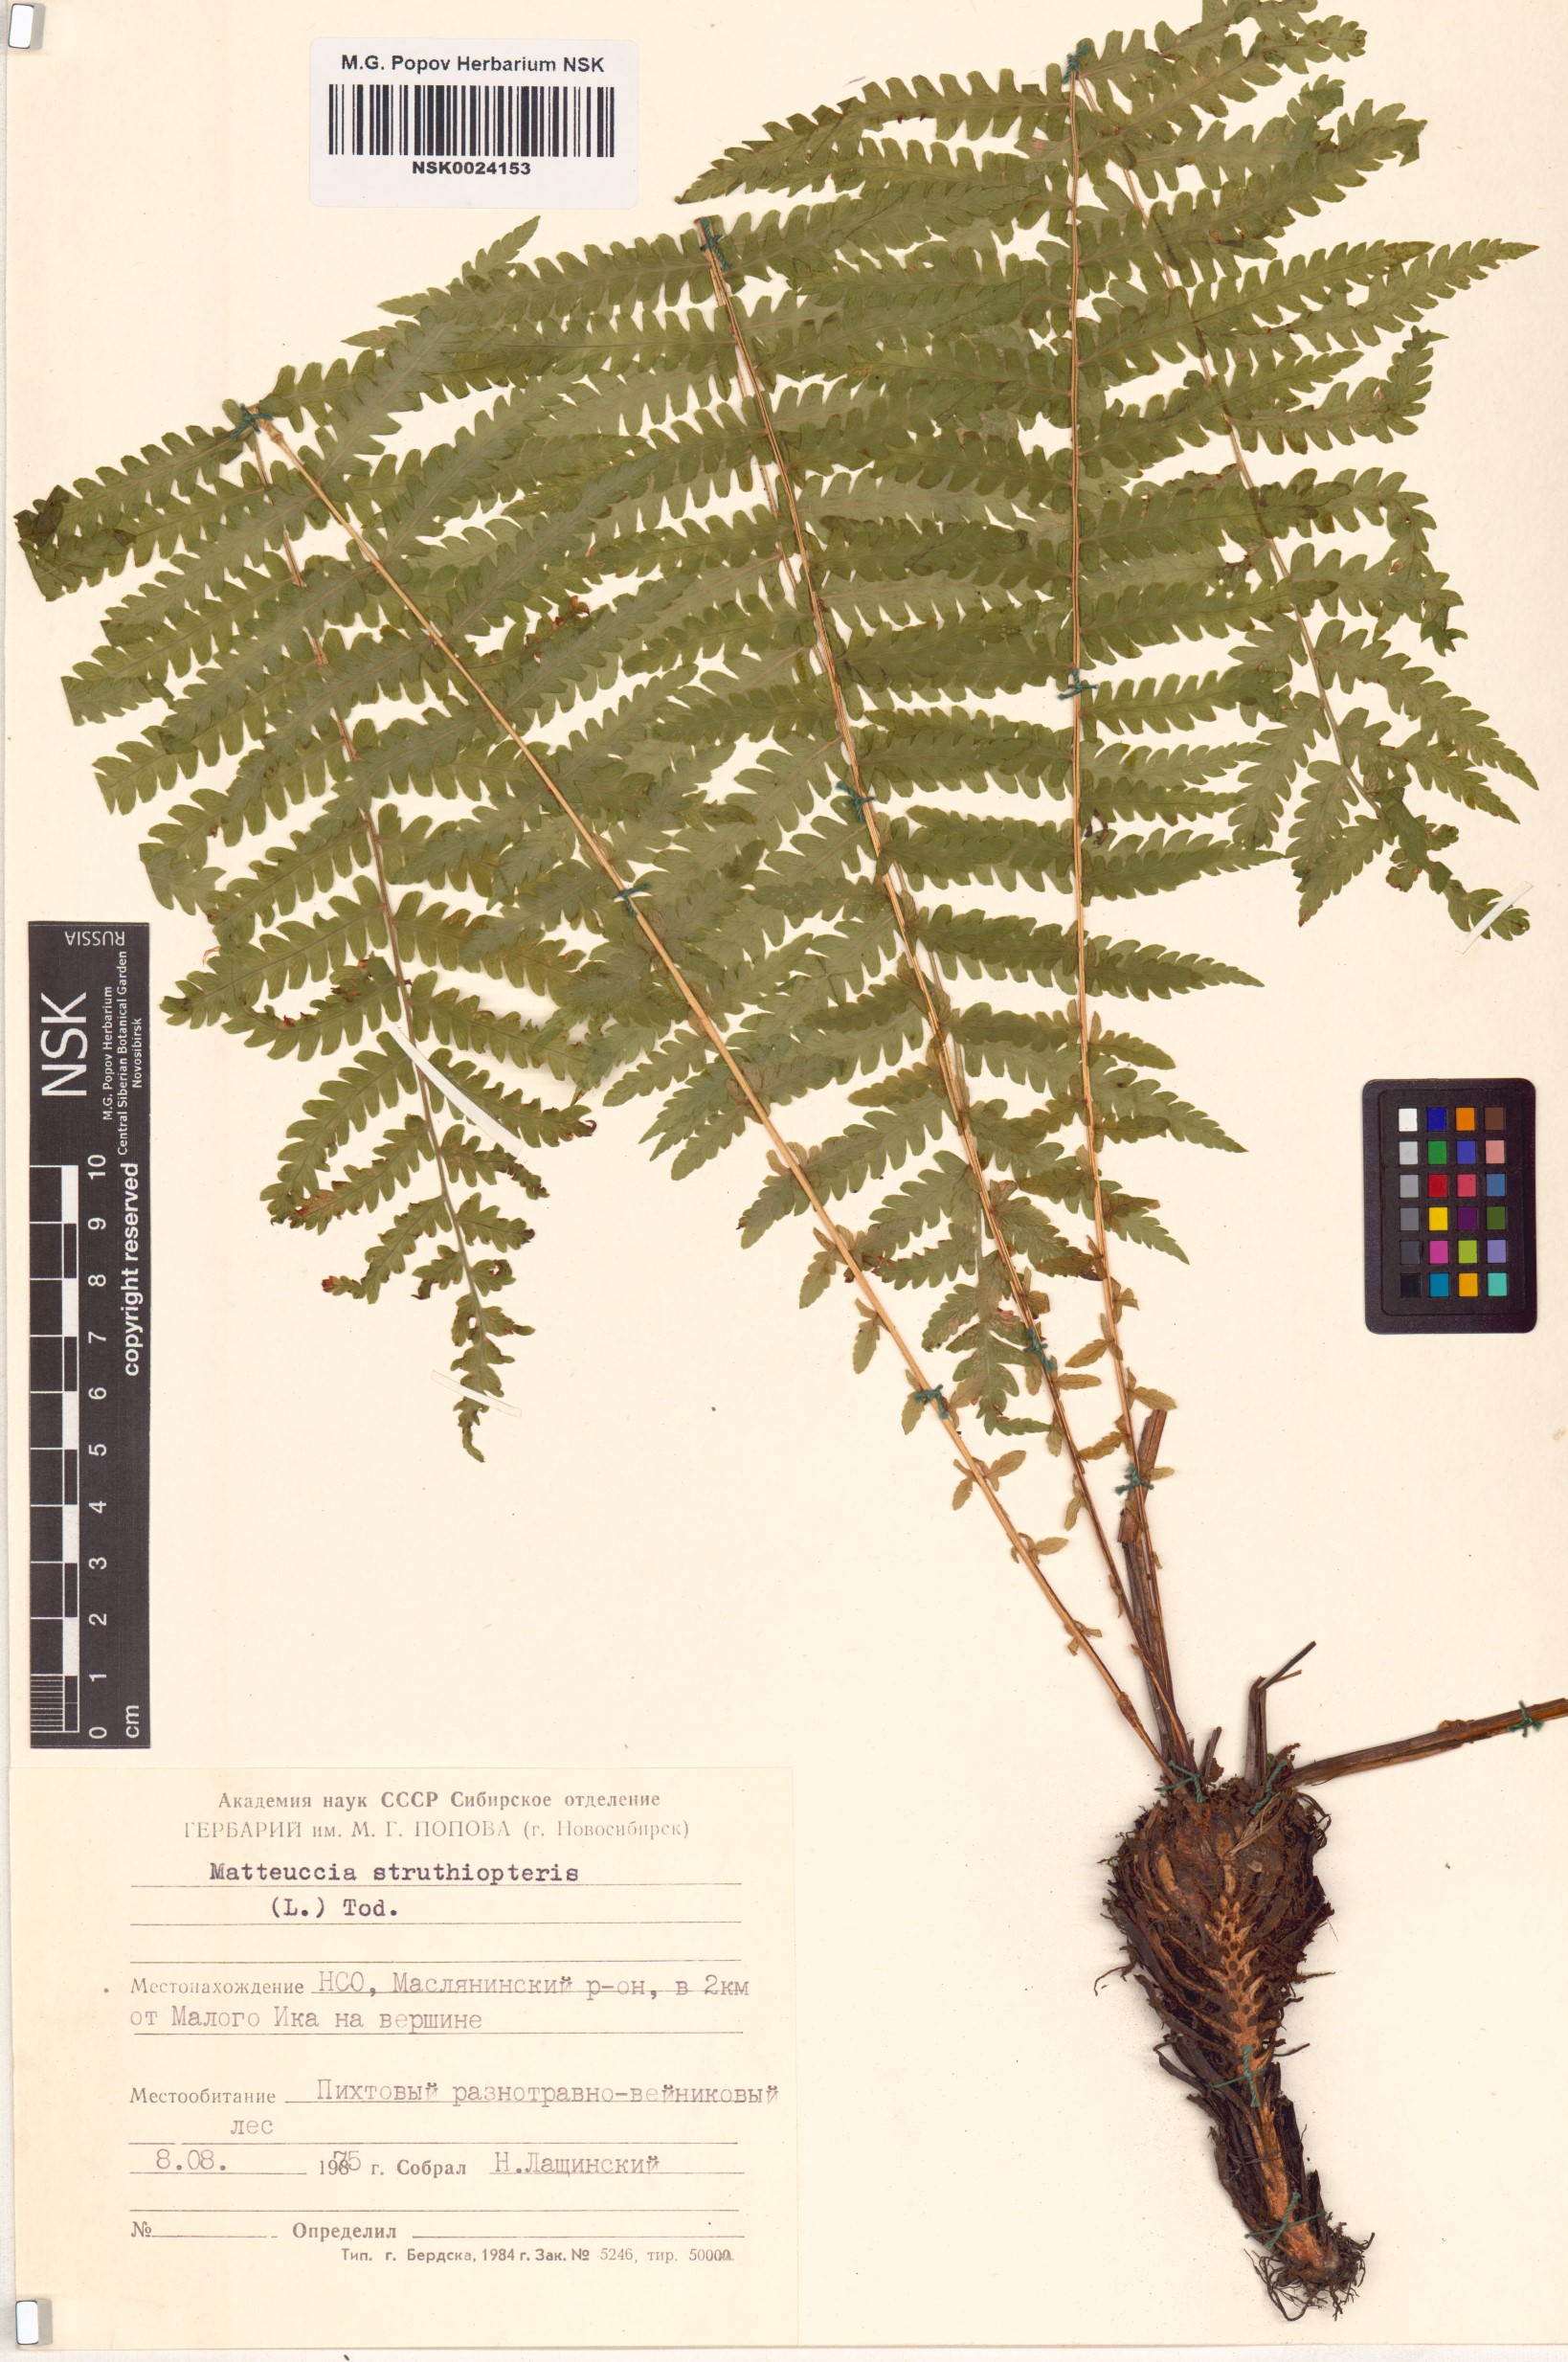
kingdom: Plantae
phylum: Tracheophyta
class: Polypodiopsida
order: Polypodiales
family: Onocleaceae
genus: Matteuccia
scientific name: Matteuccia struthiopteris
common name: Ostrich fern
